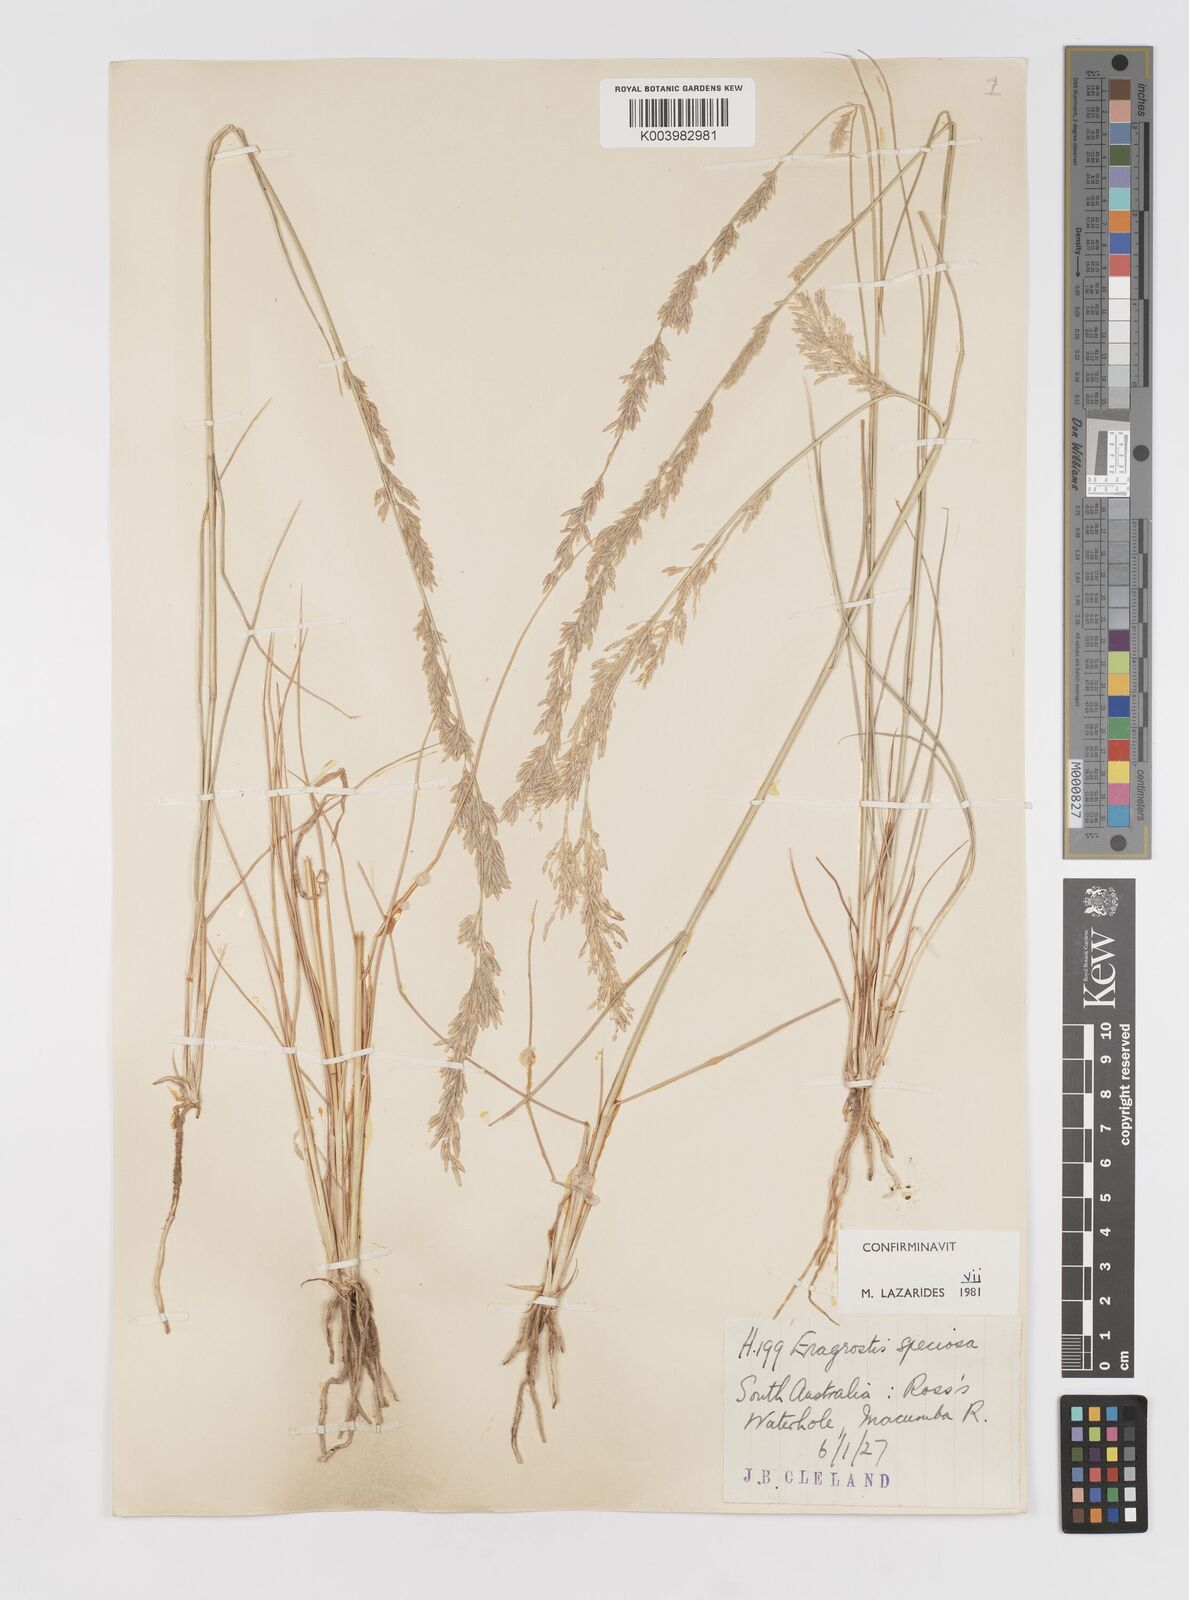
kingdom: Plantae
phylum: Tracheophyta
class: Liliopsida
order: Poales
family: Poaceae
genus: Eragrostis
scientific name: Eragrostis speciosa
